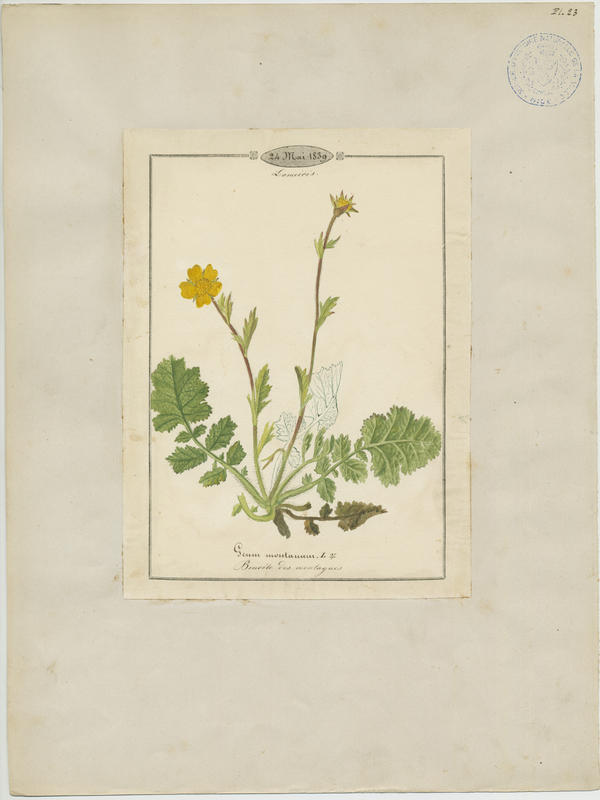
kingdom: Plantae
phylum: Tracheophyta
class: Magnoliopsida
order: Rosales
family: Rosaceae
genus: Geum
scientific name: Geum montanum
